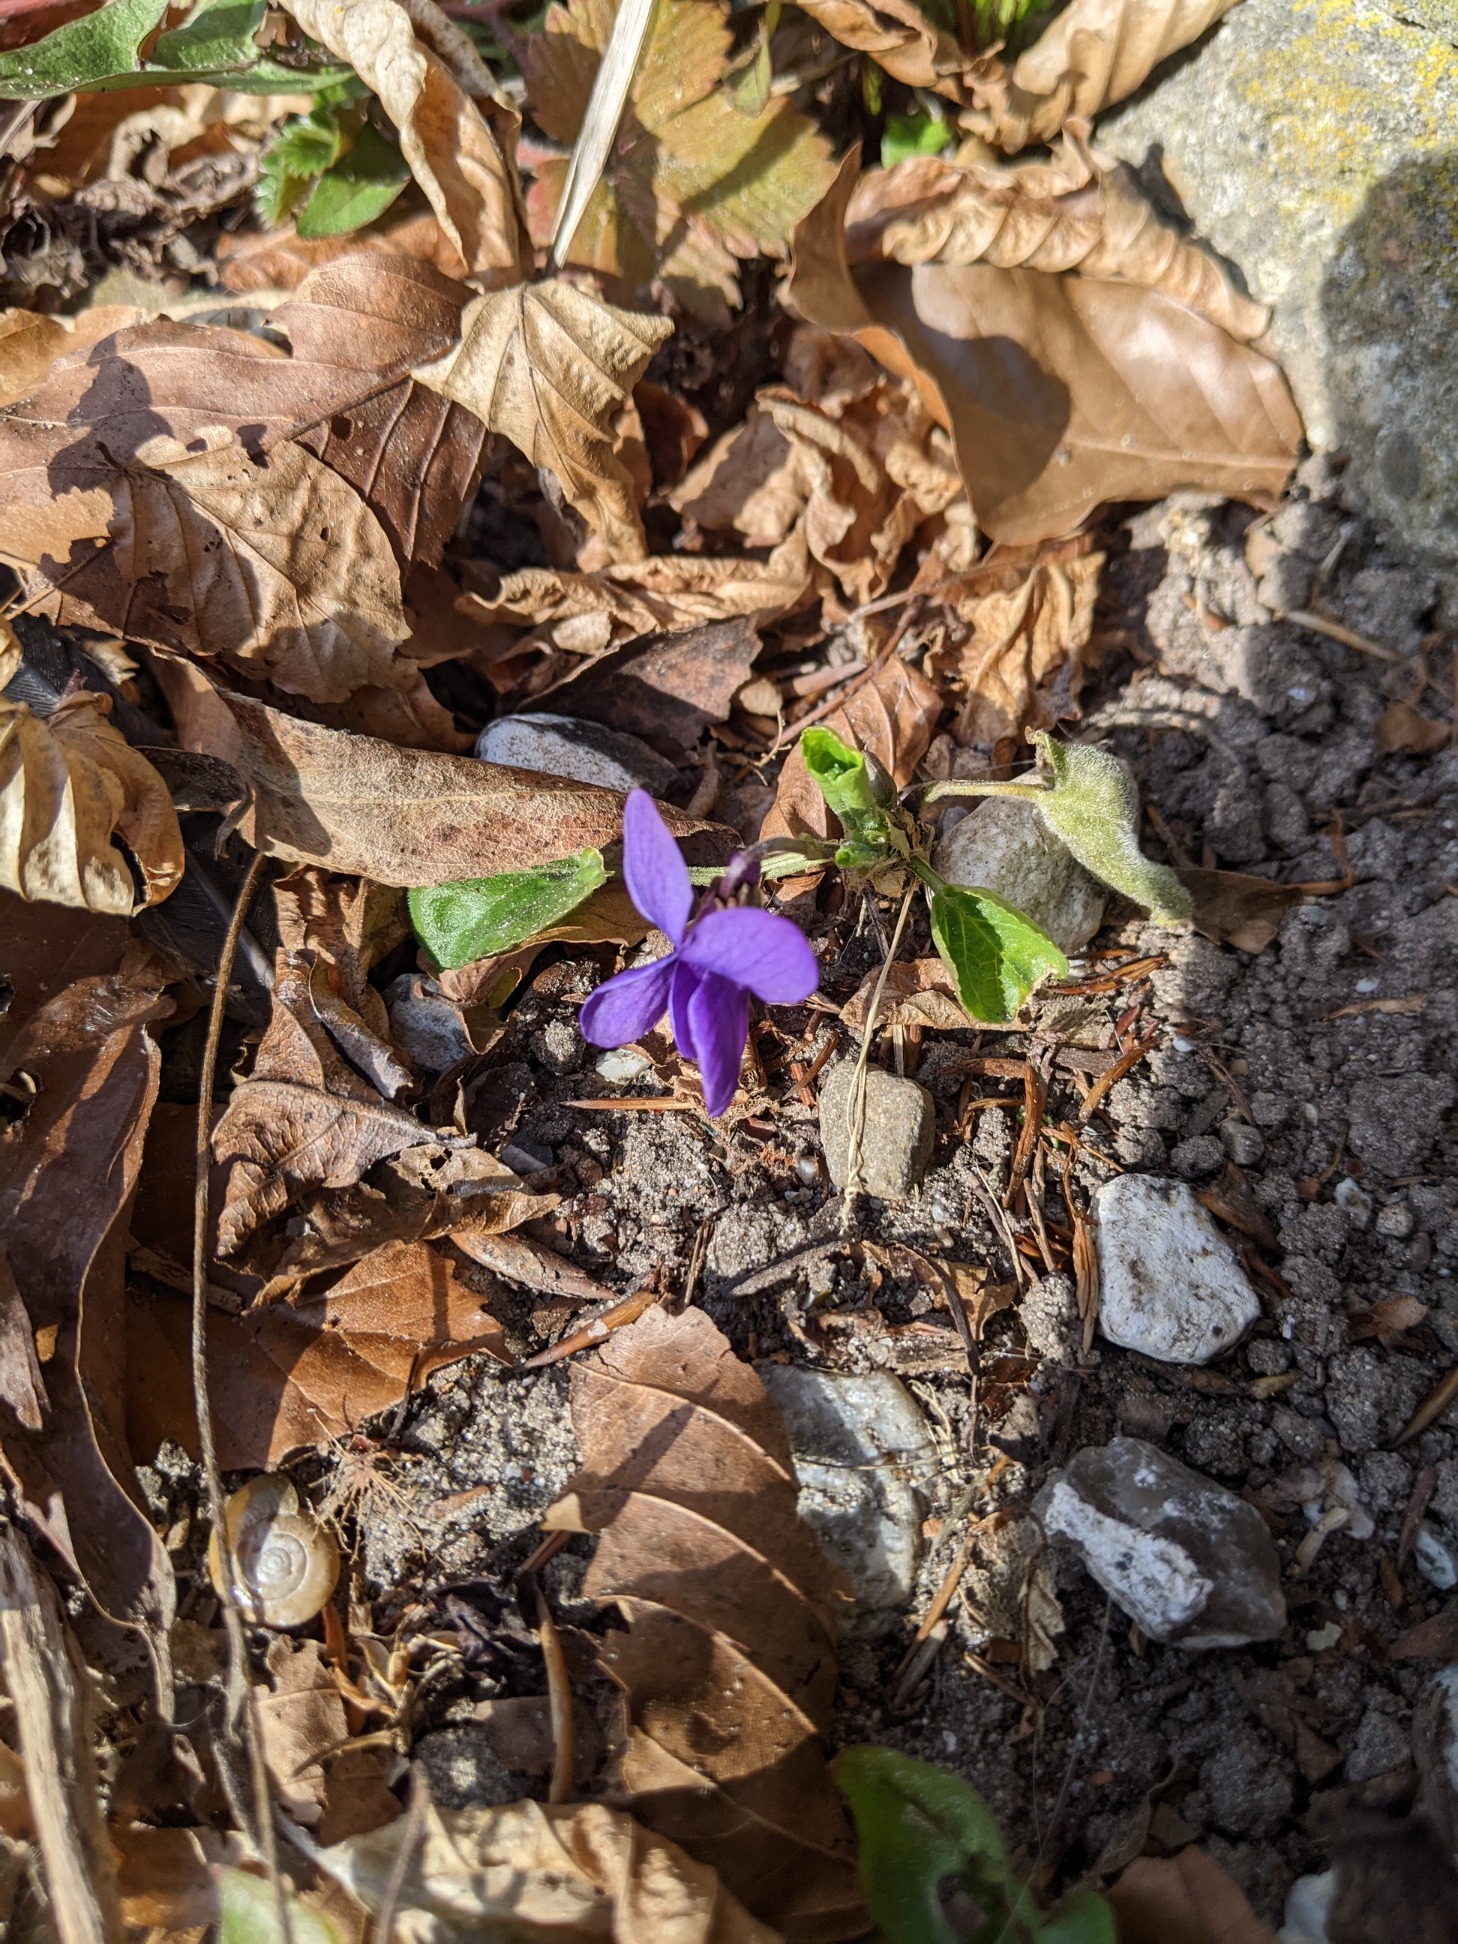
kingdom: Plantae
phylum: Tracheophyta
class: Magnoliopsida
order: Malpighiales
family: Violaceae
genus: Viola
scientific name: Viola odorata
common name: Marts-viol
